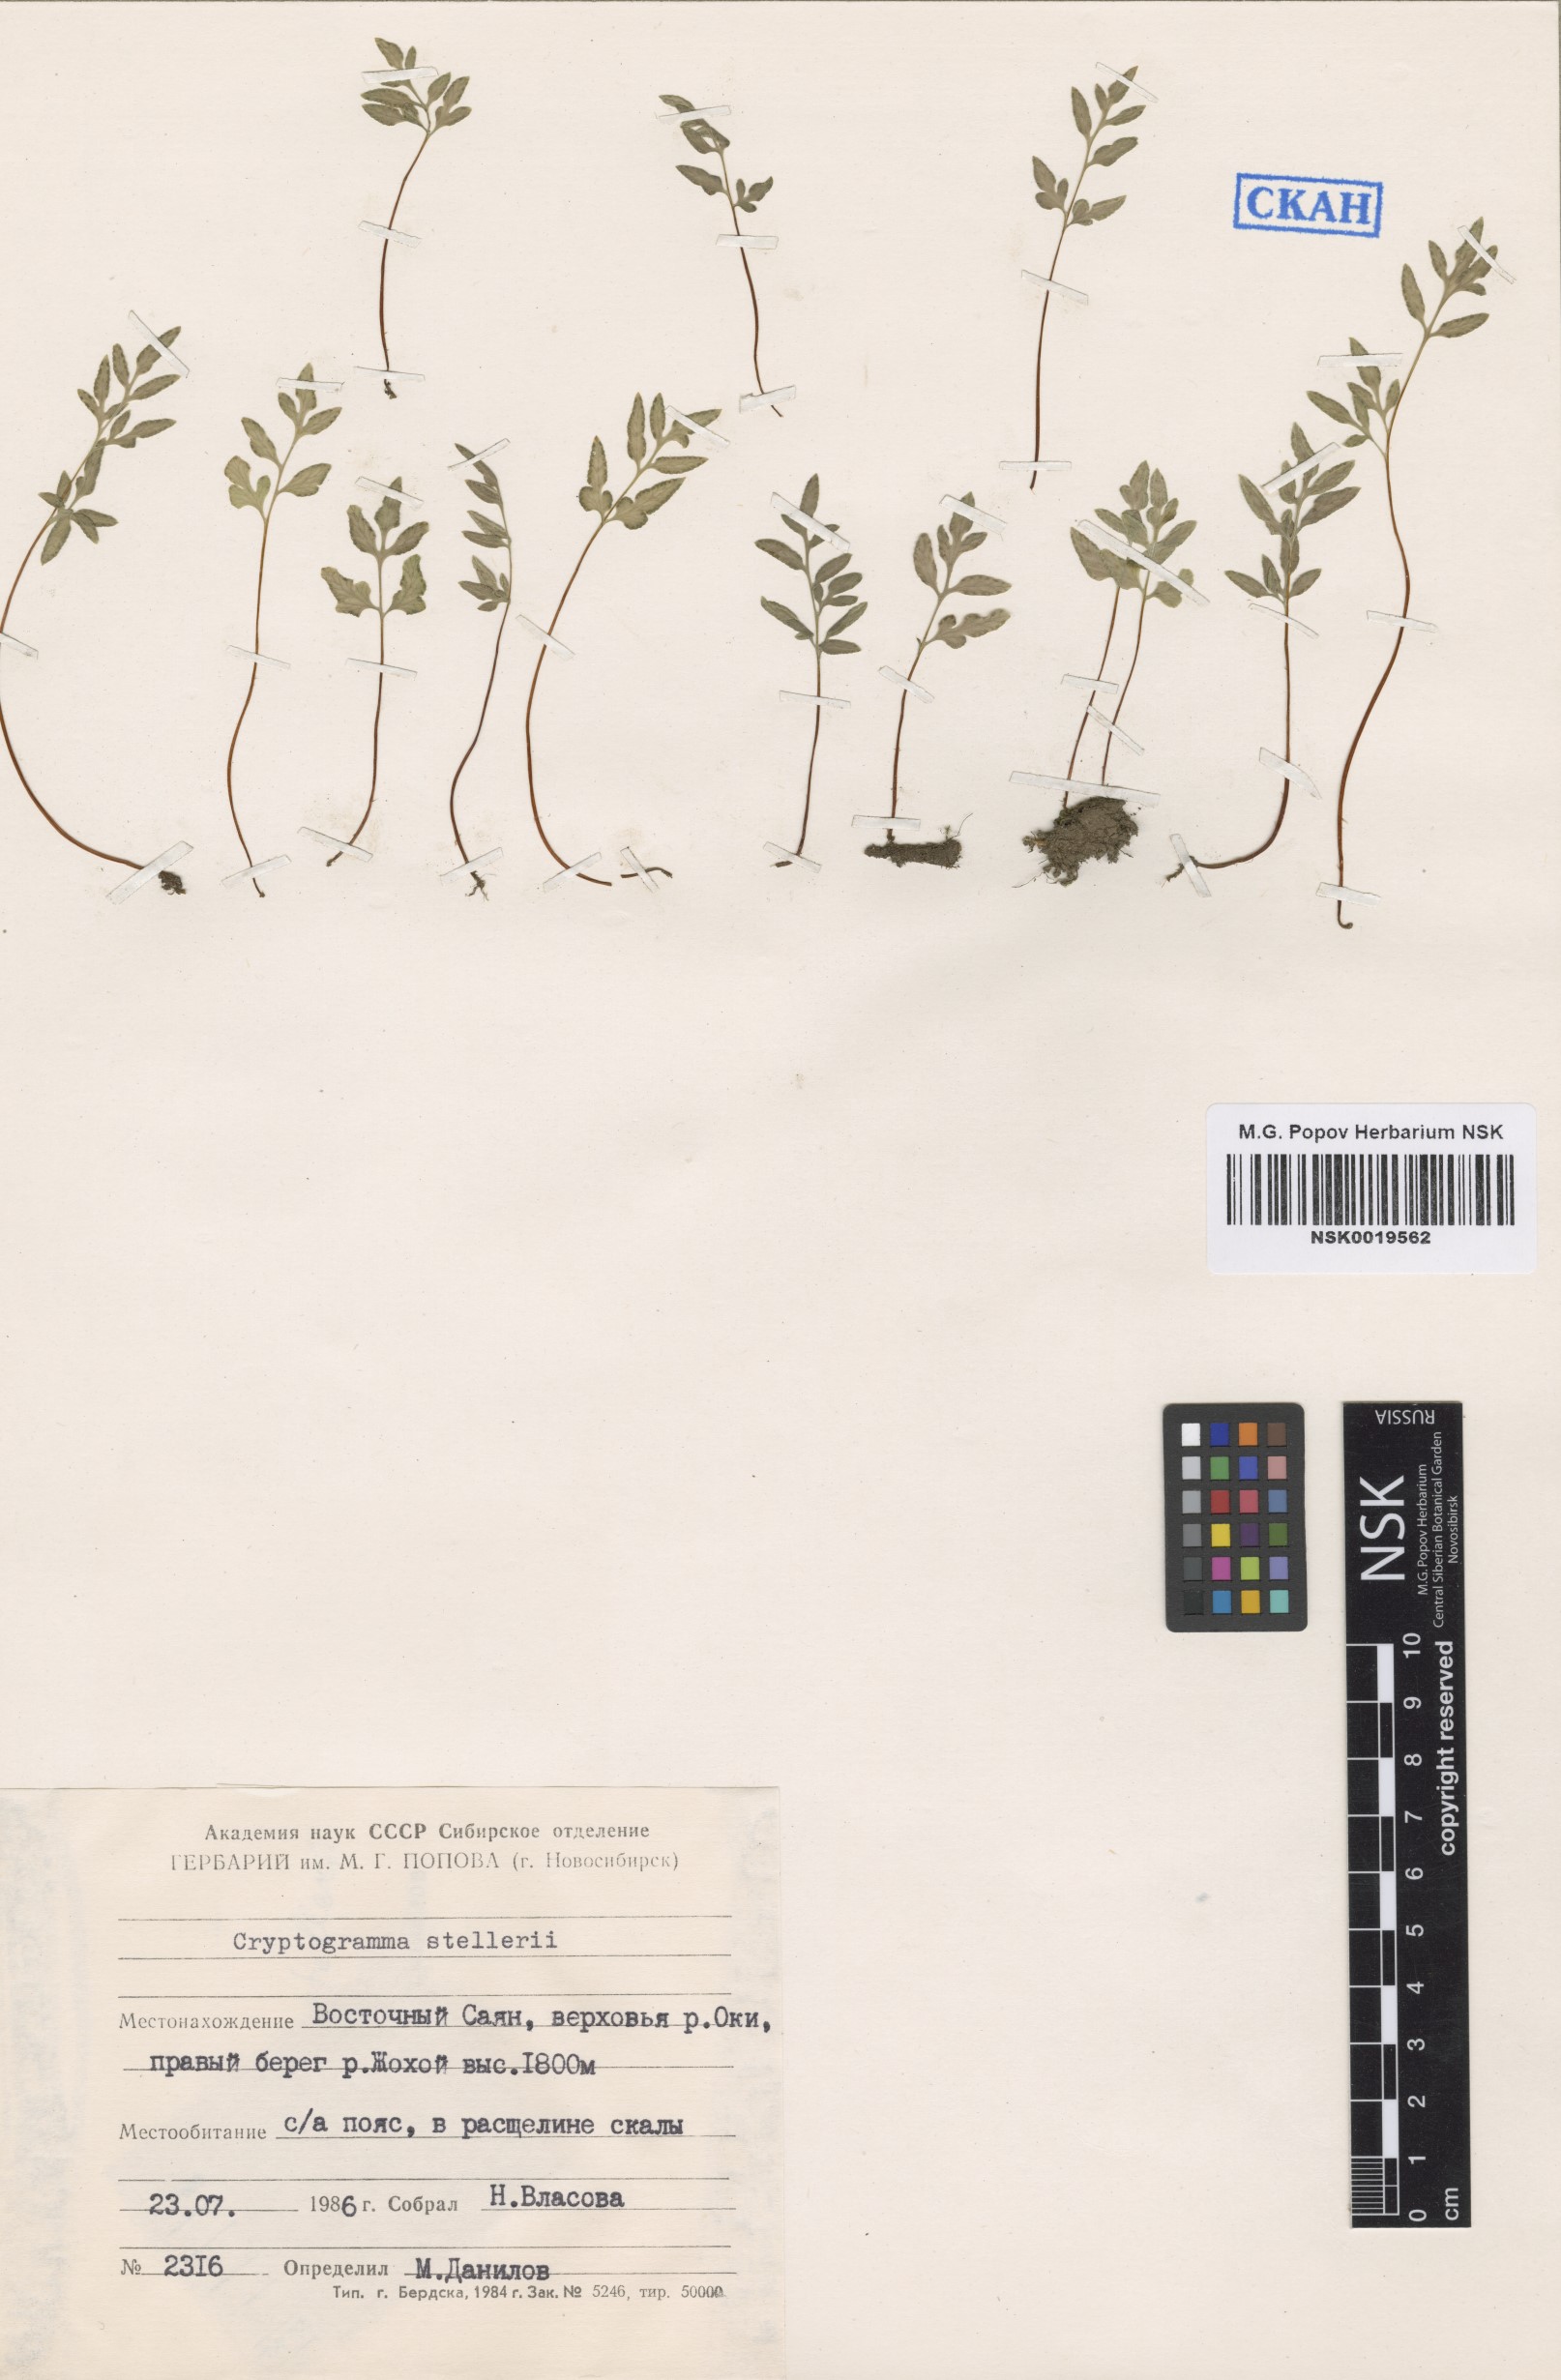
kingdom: Plantae
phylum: Tracheophyta
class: Polypodiopsida
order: Polypodiales
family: Pteridaceae
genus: Cryptogramma
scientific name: Cryptogramma stelleri
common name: Cliff-brake
